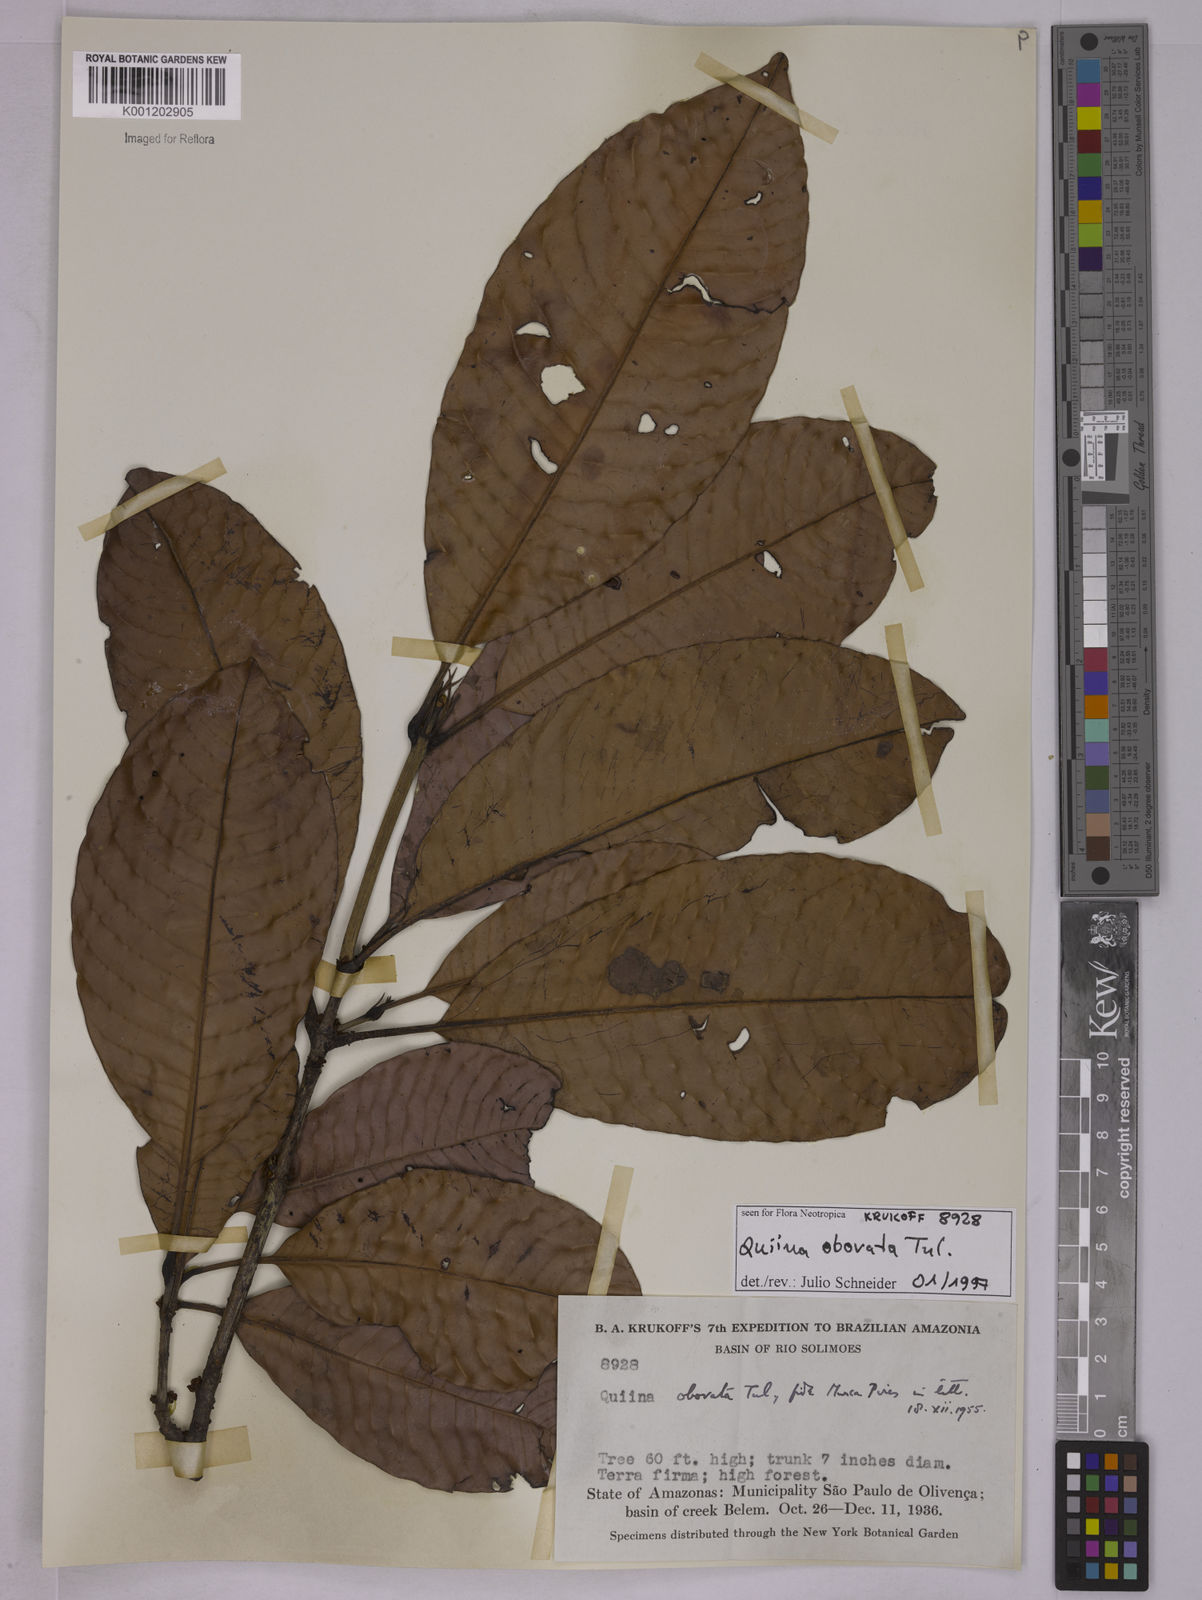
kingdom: Plantae
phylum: Tracheophyta
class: Magnoliopsida
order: Malpighiales
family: Quiinaceae
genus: Quiina
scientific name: Quiina obovata
